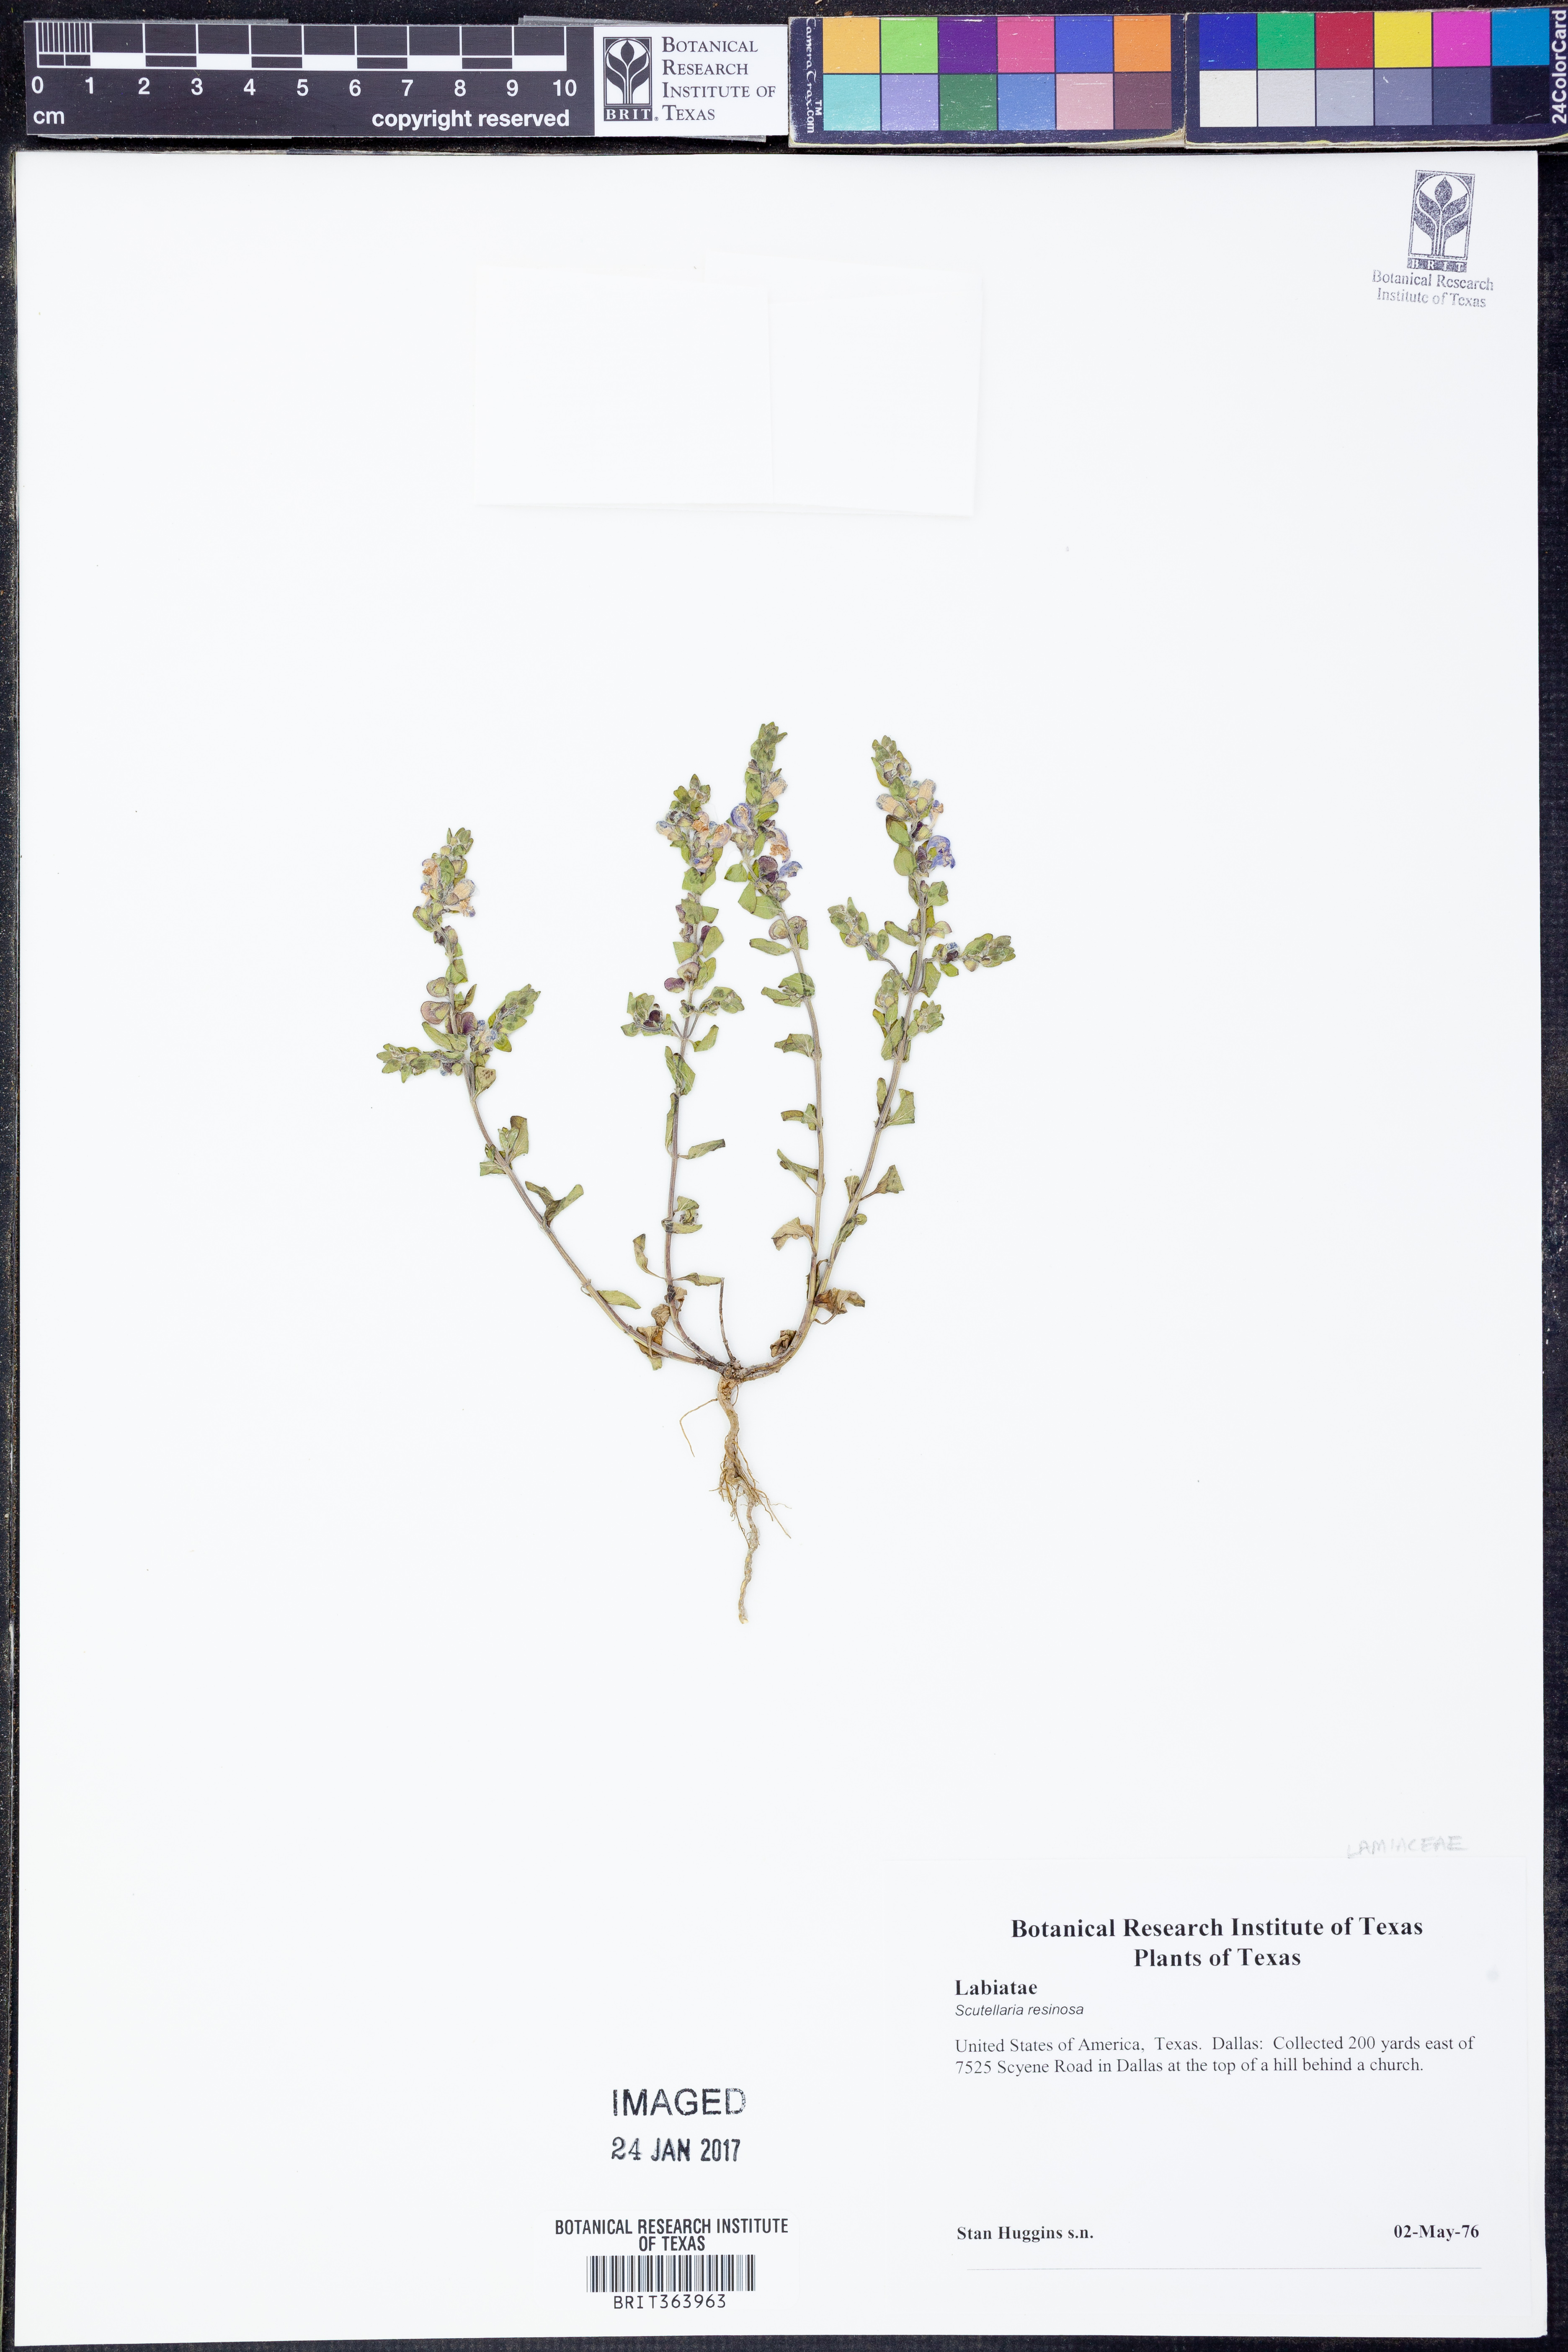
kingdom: Plantae
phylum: Tracheophyta
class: Magnoliopsida
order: Lamiales
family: Lamiaceae
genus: Scutellaria
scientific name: Scutellaria resinosa
